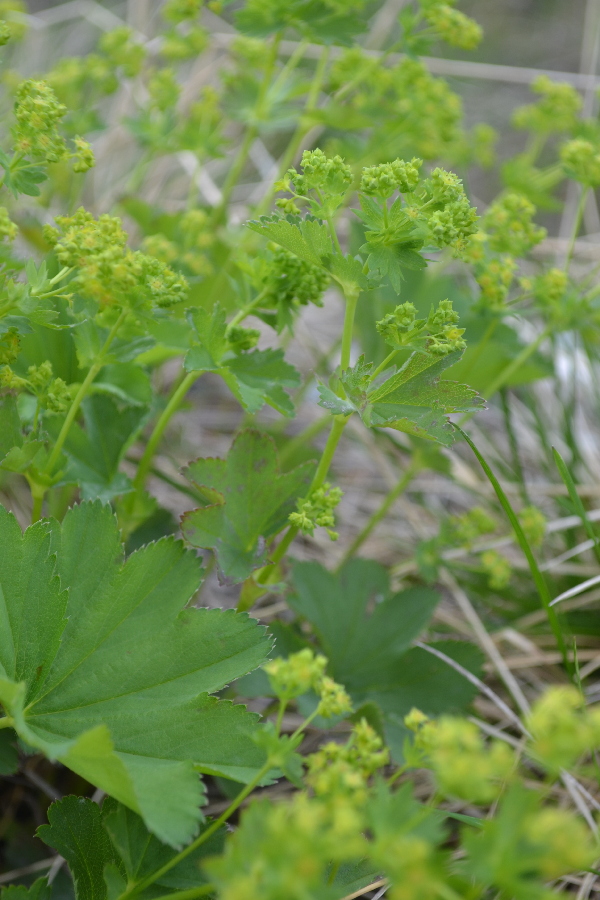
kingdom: Plantae
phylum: Tracheophyta
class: Magnoliopsida
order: Rosales
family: Rosaceae
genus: Alchemilla
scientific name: Alchemilla
